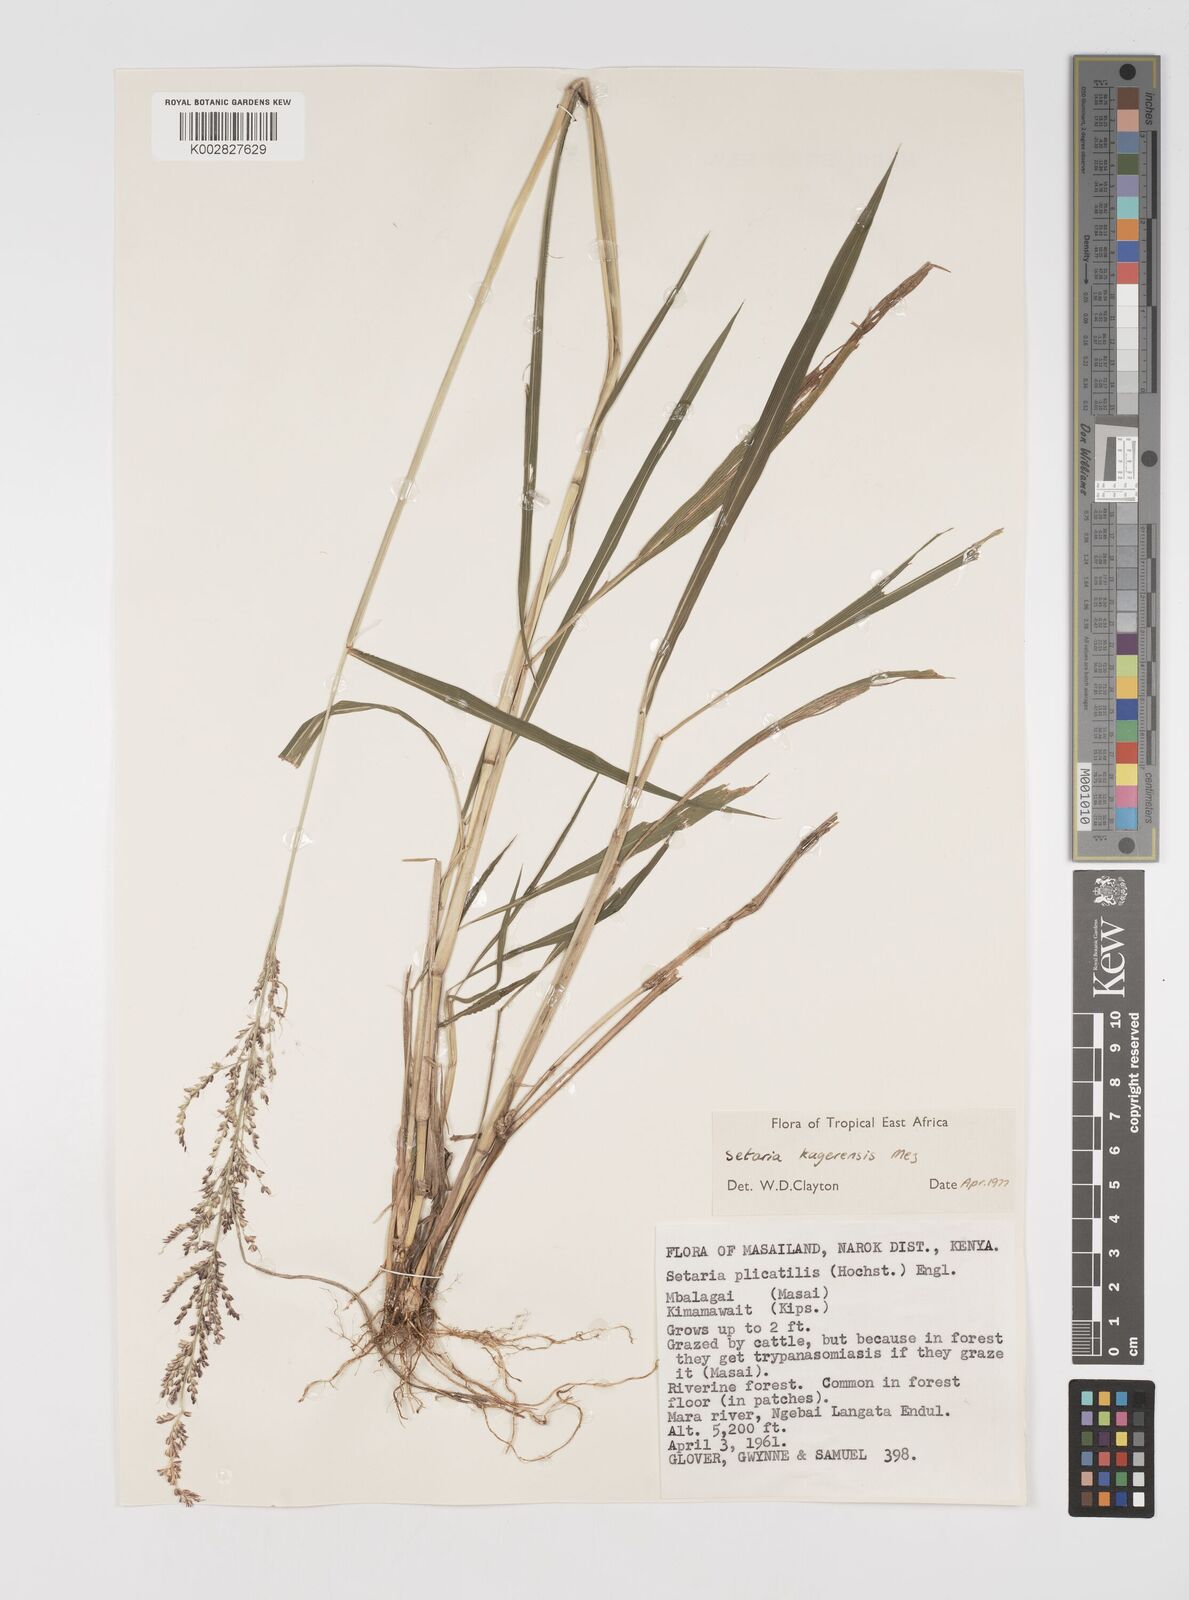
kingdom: Plantae
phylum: Tracheophyta
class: Liliopsida
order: Poales
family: Poaceae
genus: Setaria
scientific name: Setaria kagerensis
